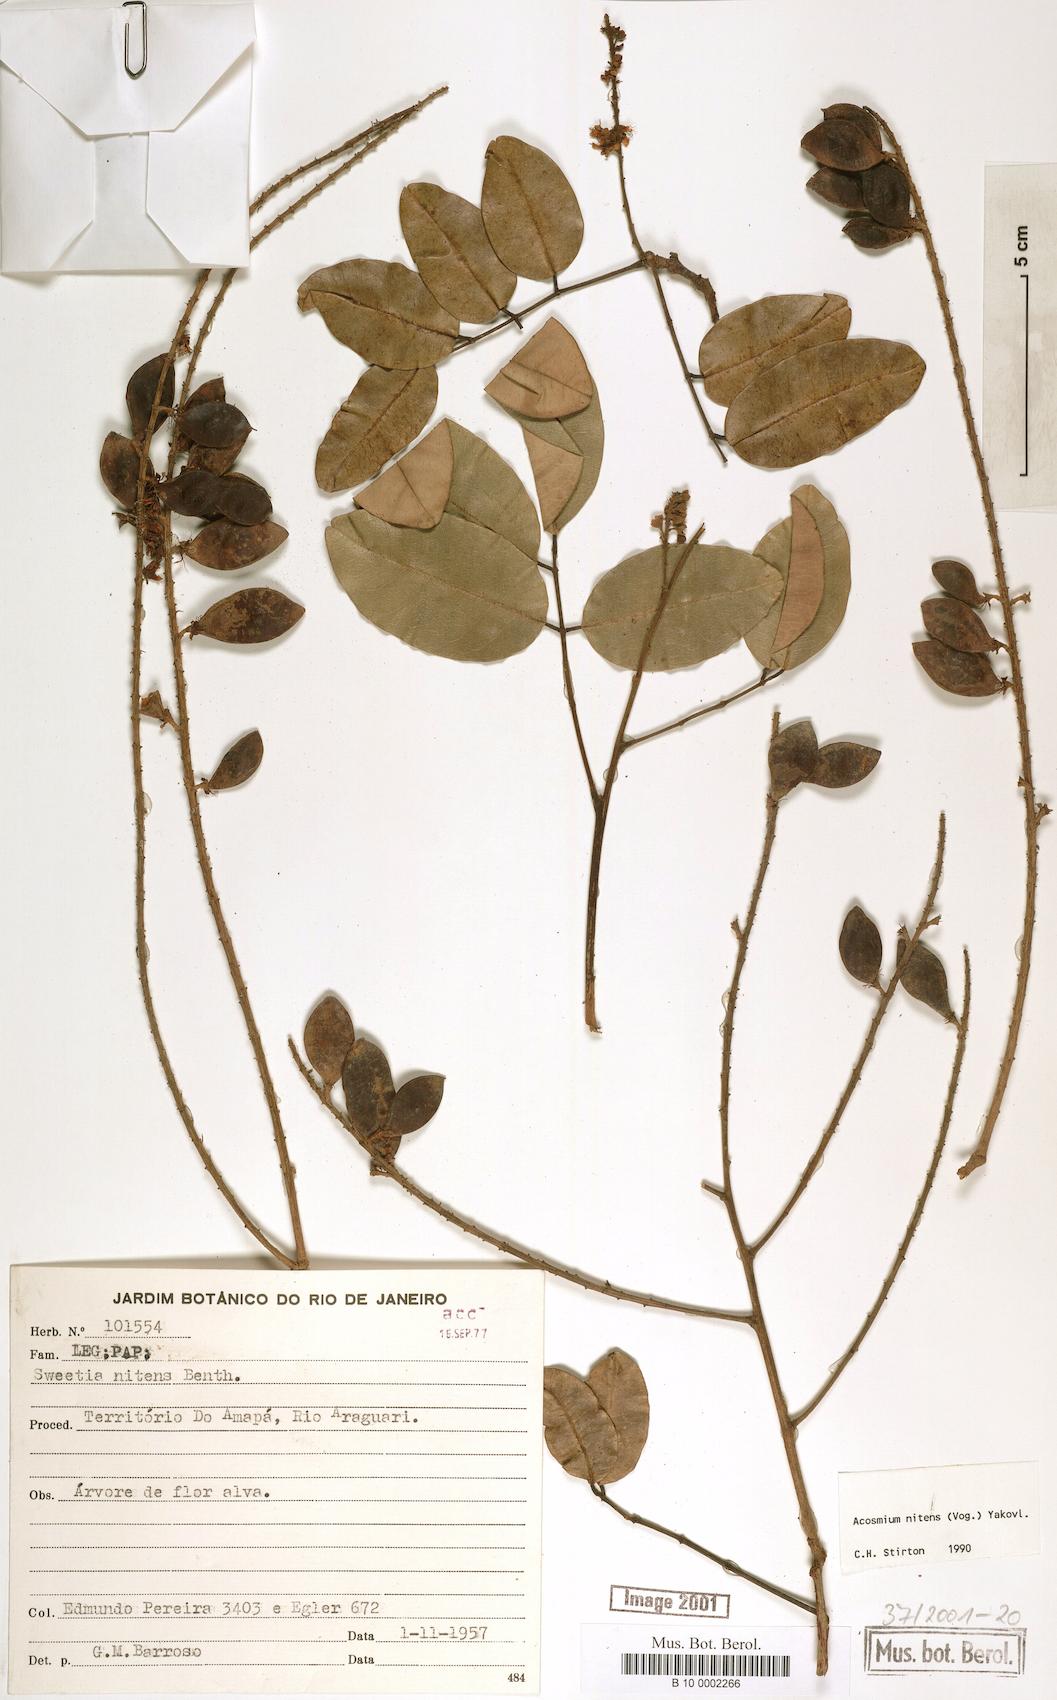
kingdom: Plantae
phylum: Tracheophyta
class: Magnoliopsida
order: Fabales
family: Fabaceae
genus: Leptolobium
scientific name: Leptolobium nitens
